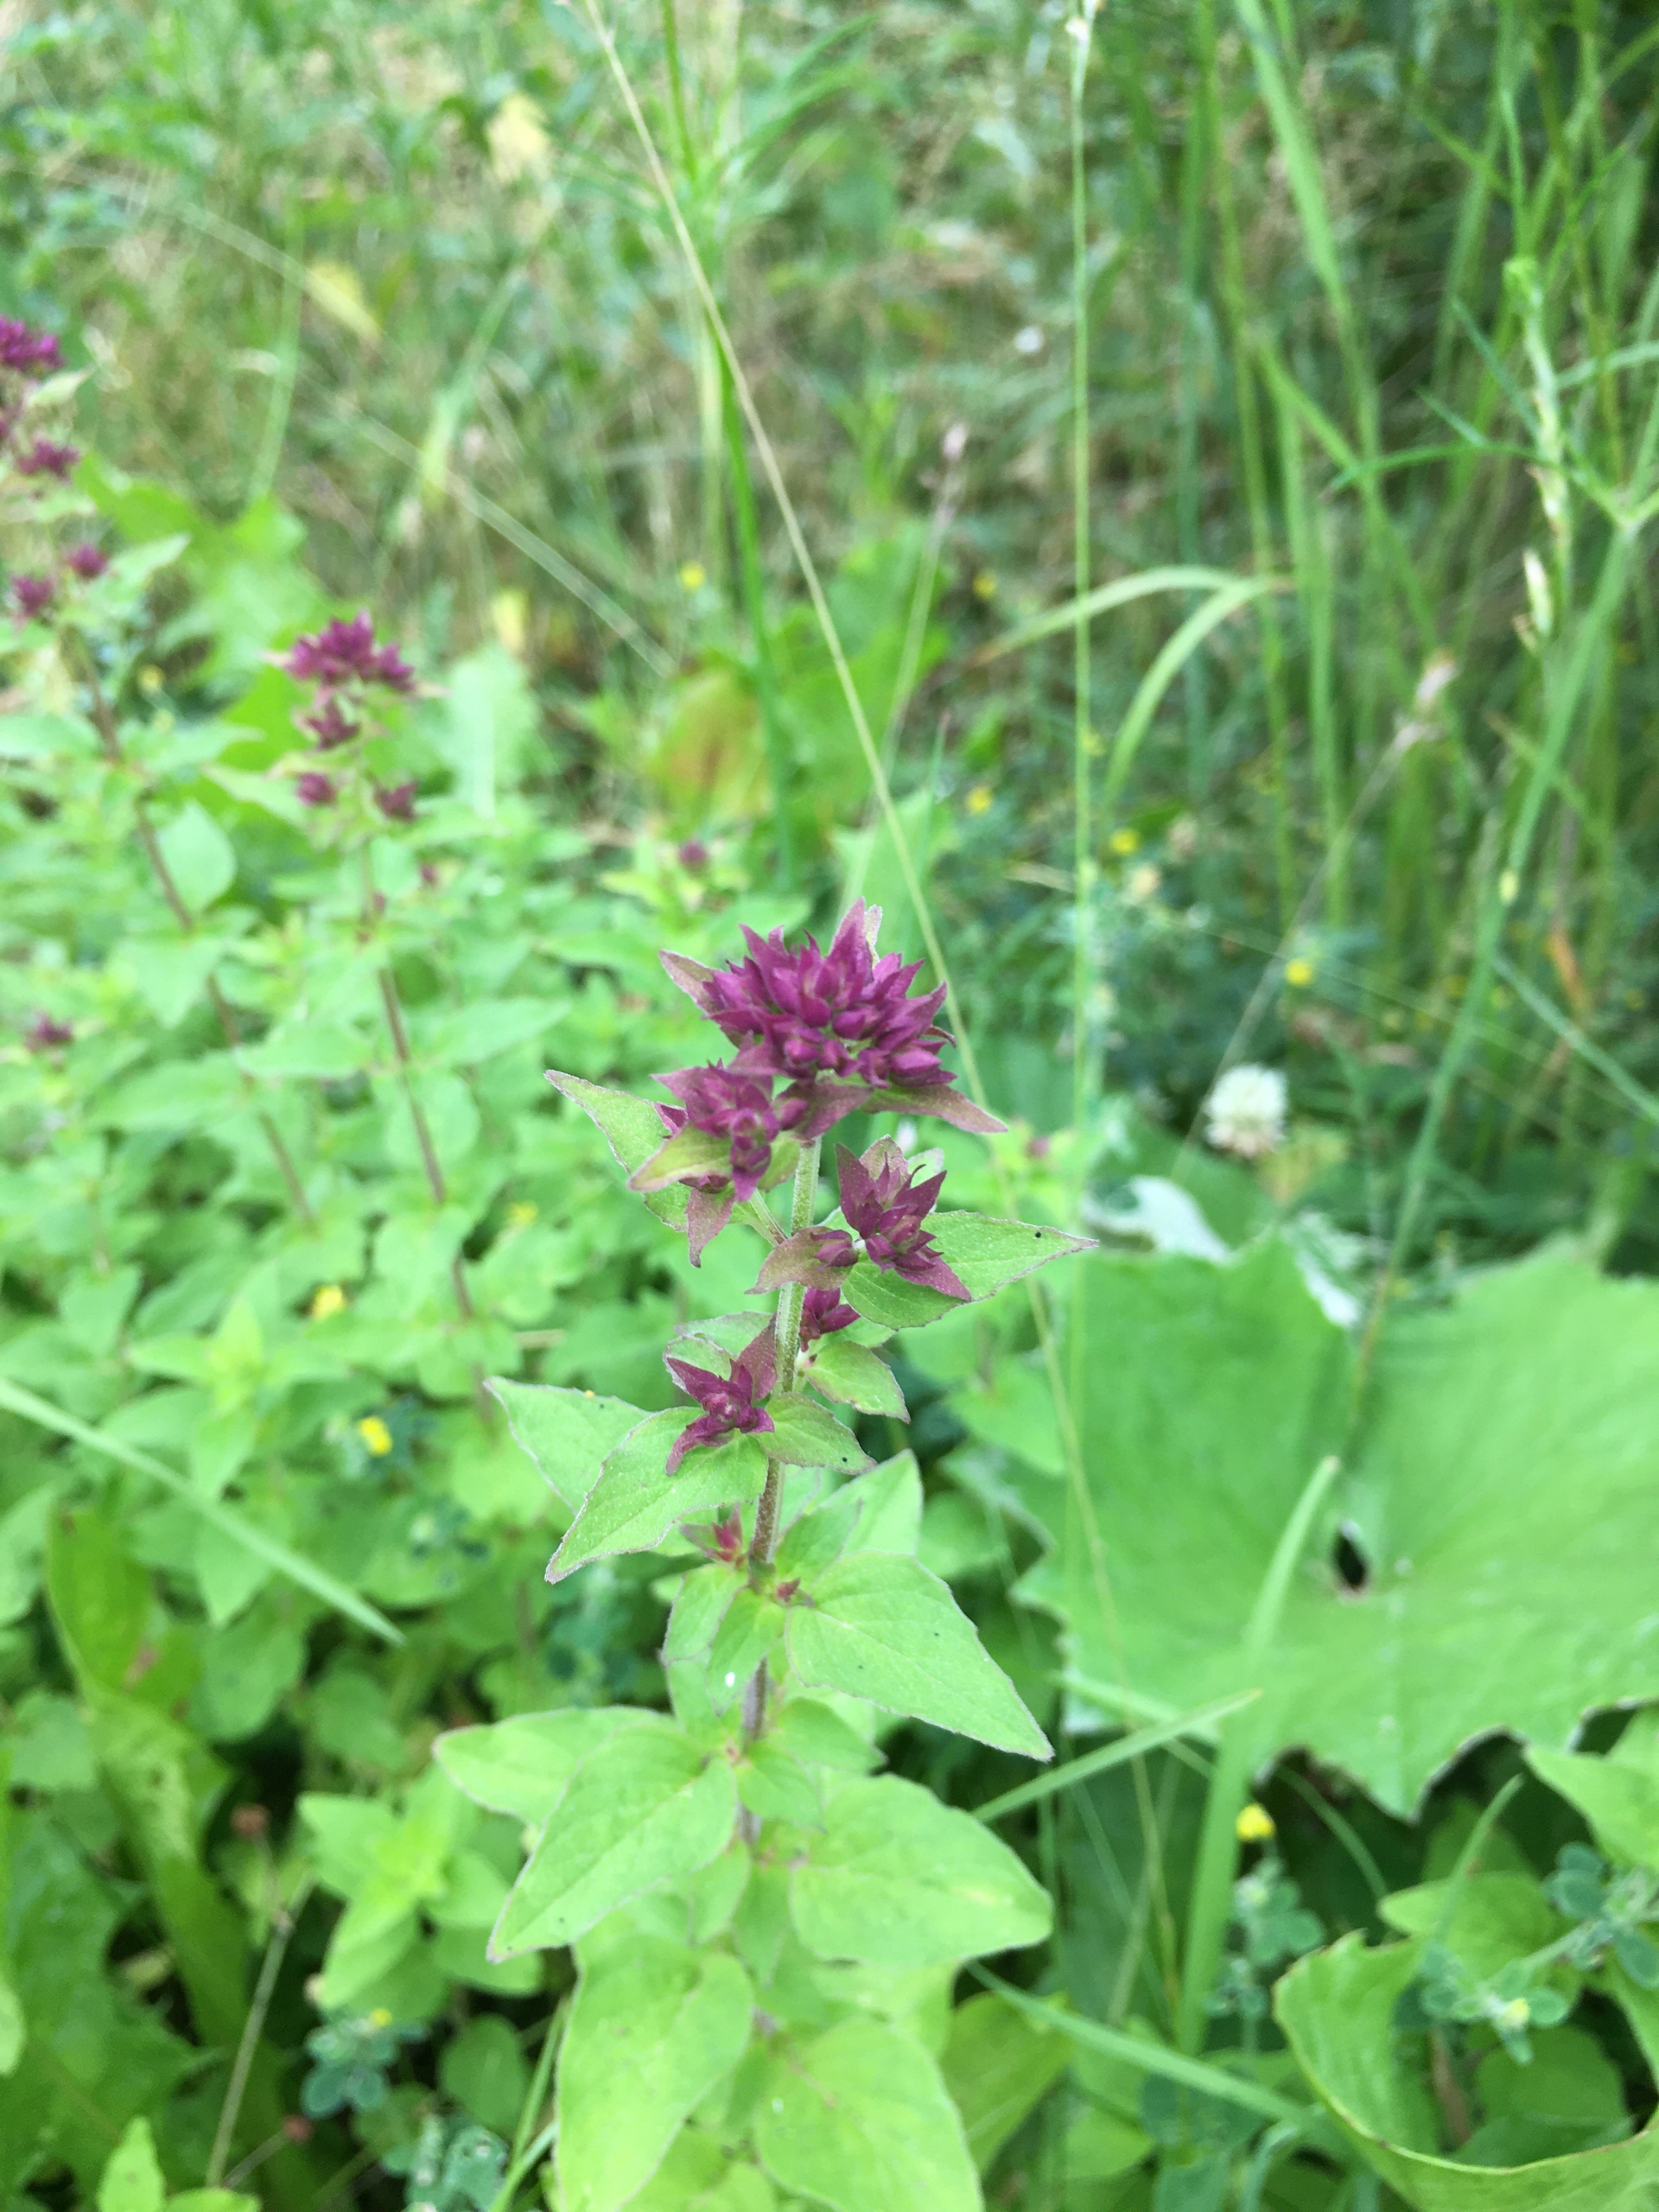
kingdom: Plantae
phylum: Tracheophyta
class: Magnoliopsida
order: Lamiales
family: Lamiaceae
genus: Origanum
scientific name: Origanum vulgare
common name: Merian
